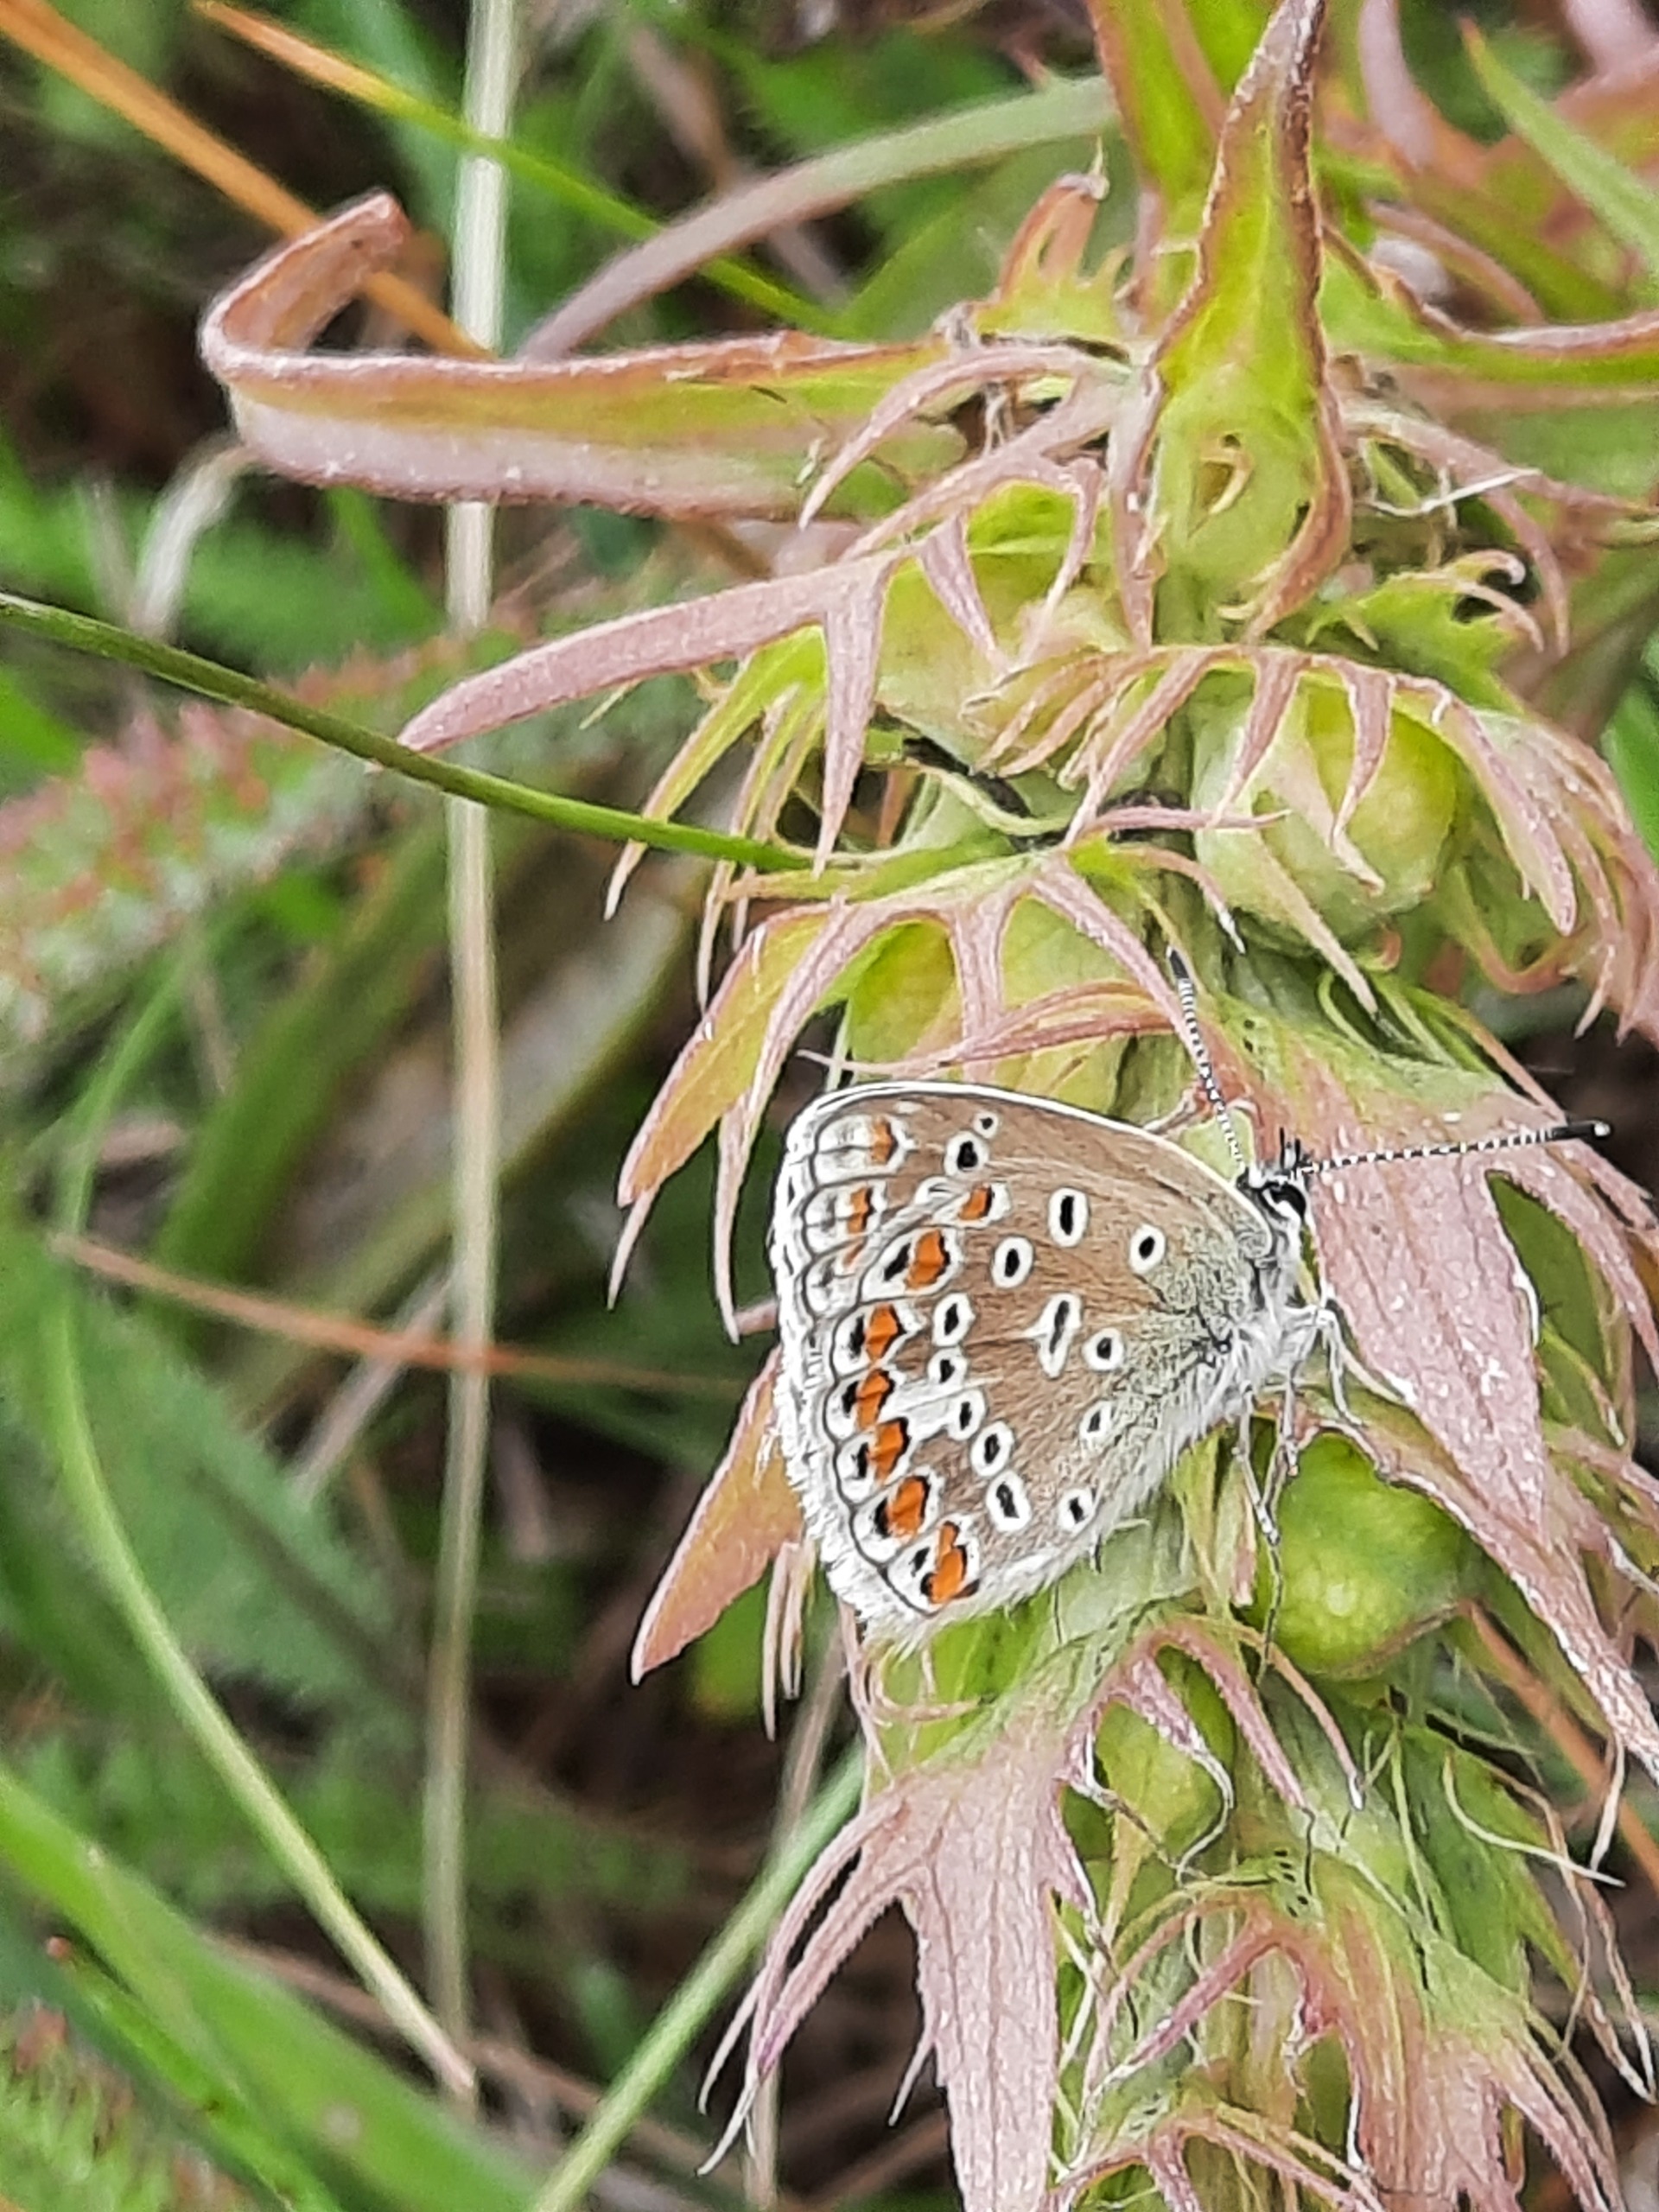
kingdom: Animalia
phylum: Arthropoda
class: Insecta
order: Lepidoptera
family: Lycaenidae
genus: Polyommatus
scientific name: Polyommatus icarus
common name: Almindelig blåfugl
